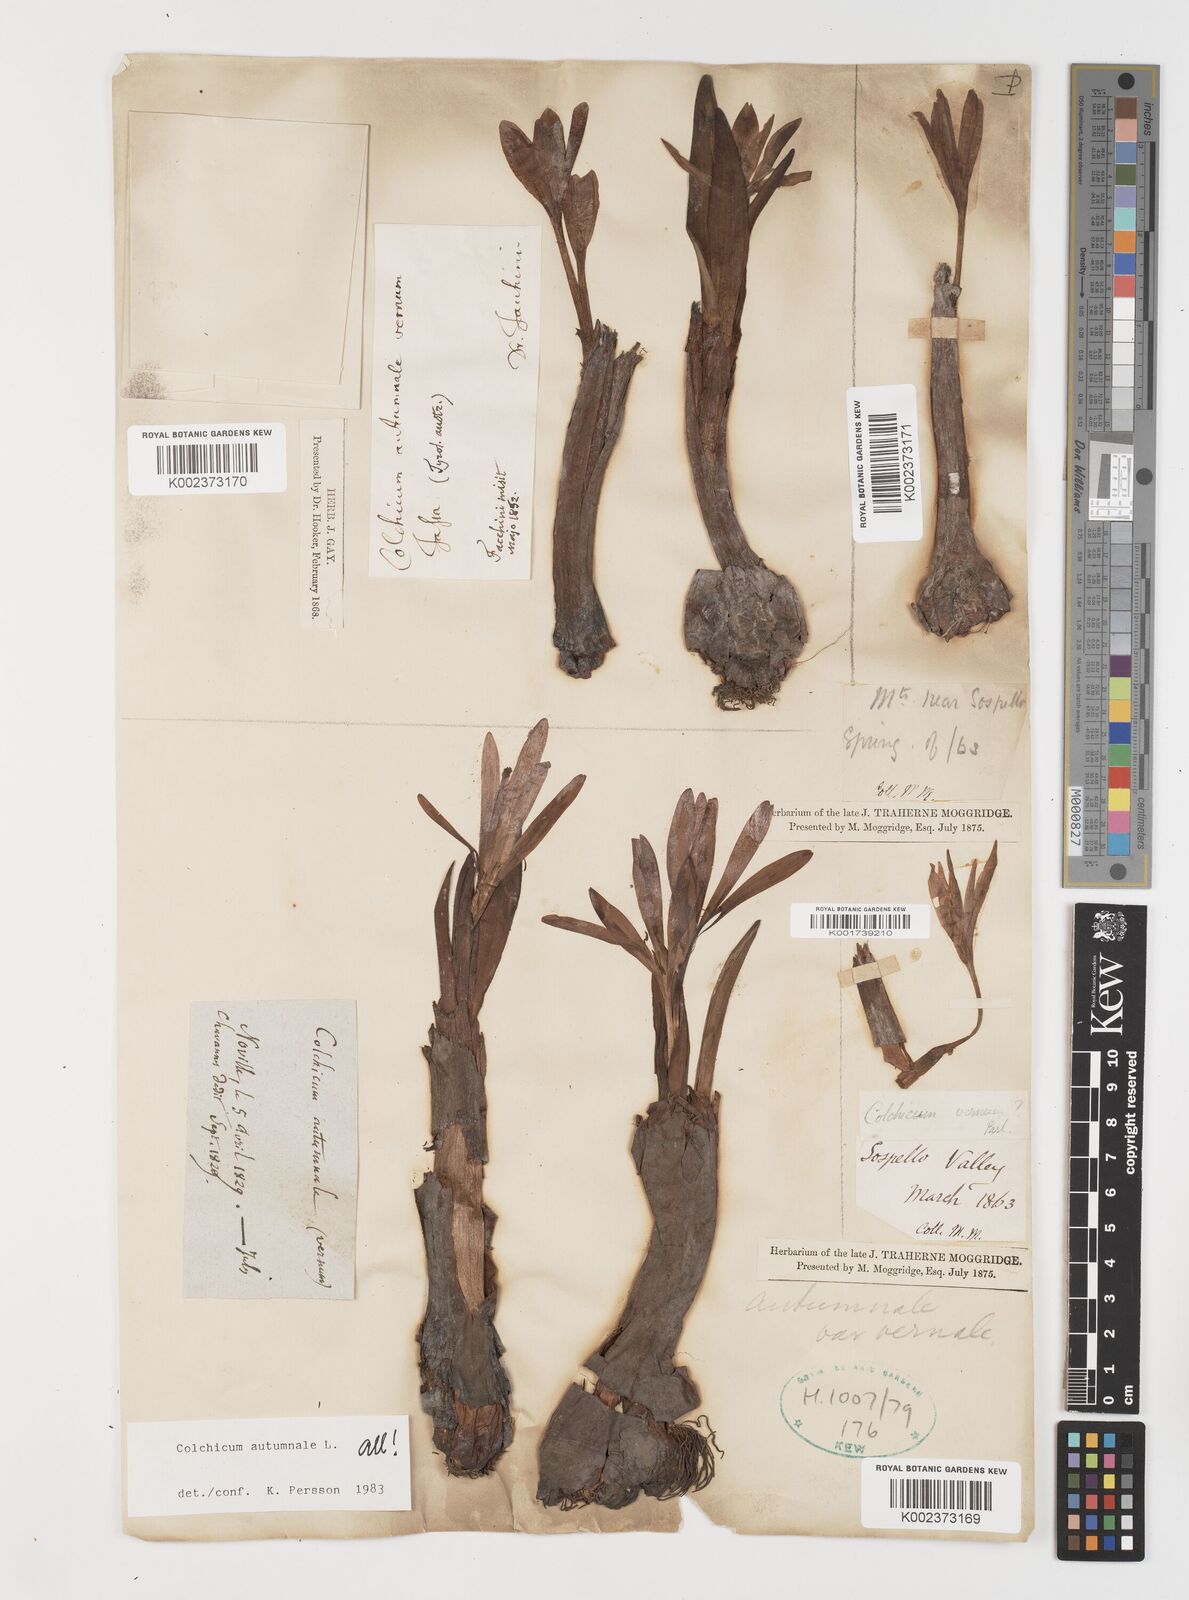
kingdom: Plantae
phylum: Tracheophyta
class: Liliopsida
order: Liliales
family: Colchicaceae
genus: Colchicum
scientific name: Colchicum autumnale
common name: Autumn crocus
